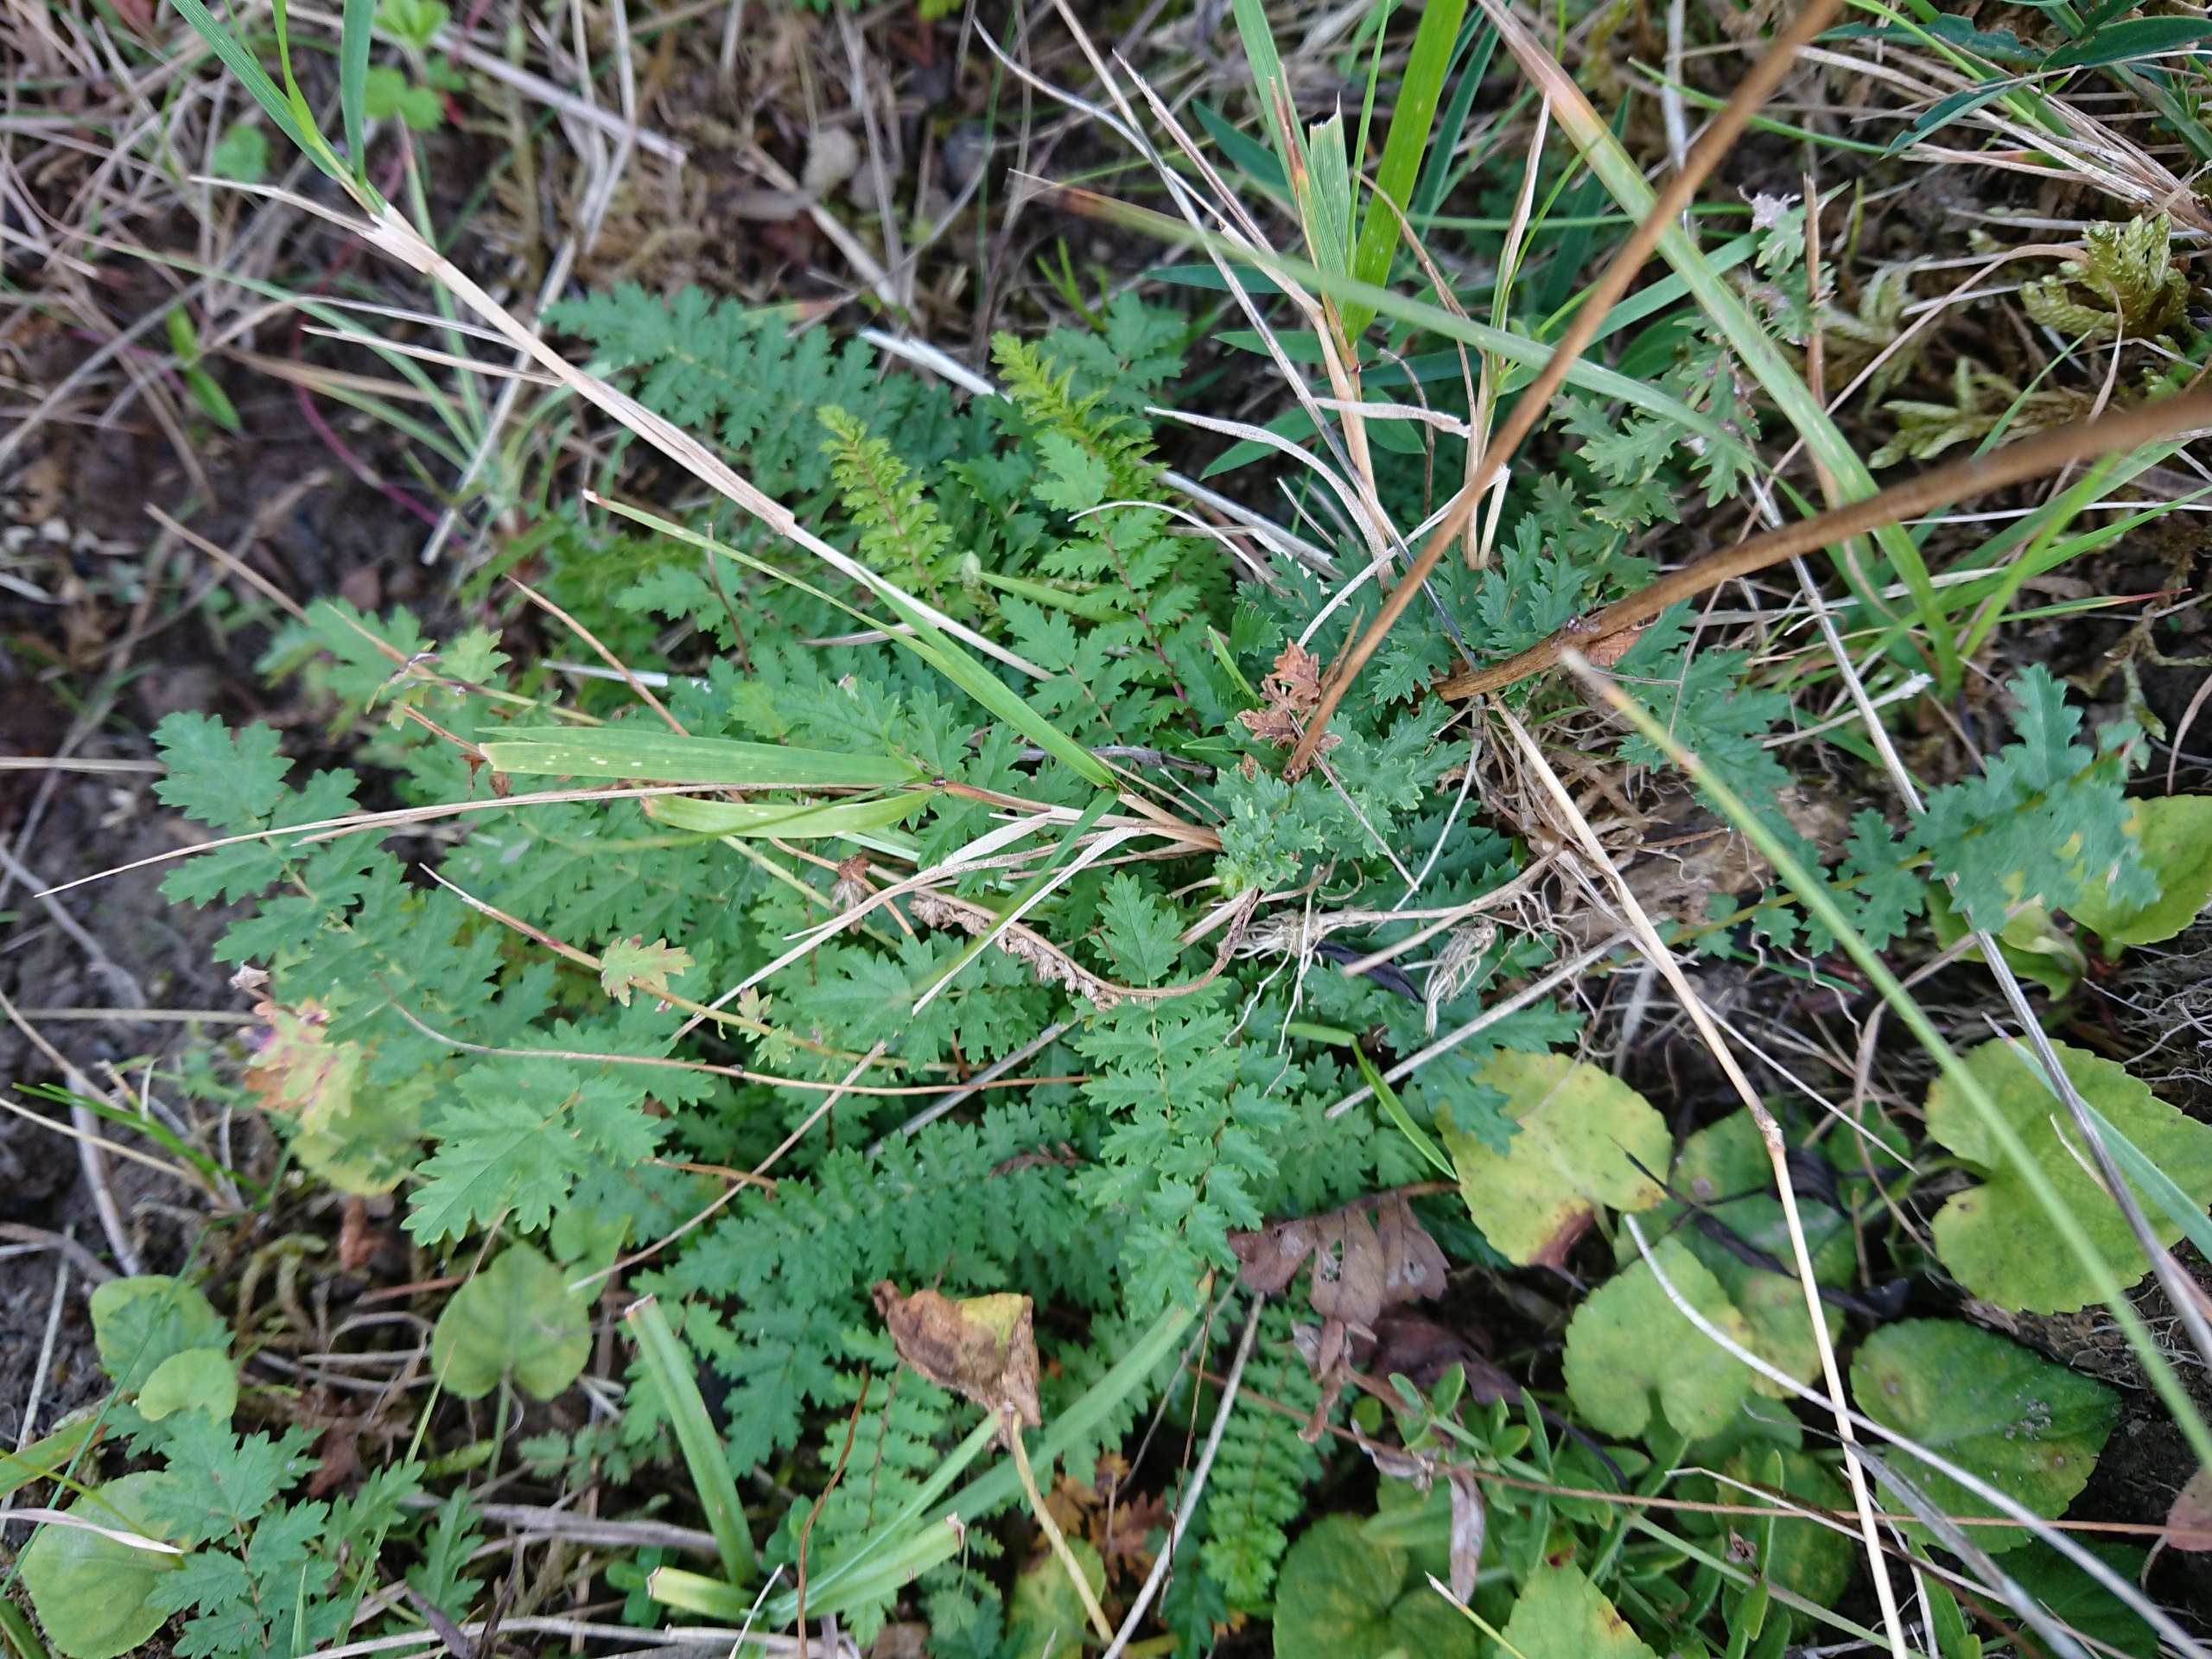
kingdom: Plantae
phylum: Tracheophyta
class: Magnoliopsida
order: Rosales
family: Rosaceae
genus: Filipendula
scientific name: Filipendula vulgaris
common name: Knoldet mjødurt
